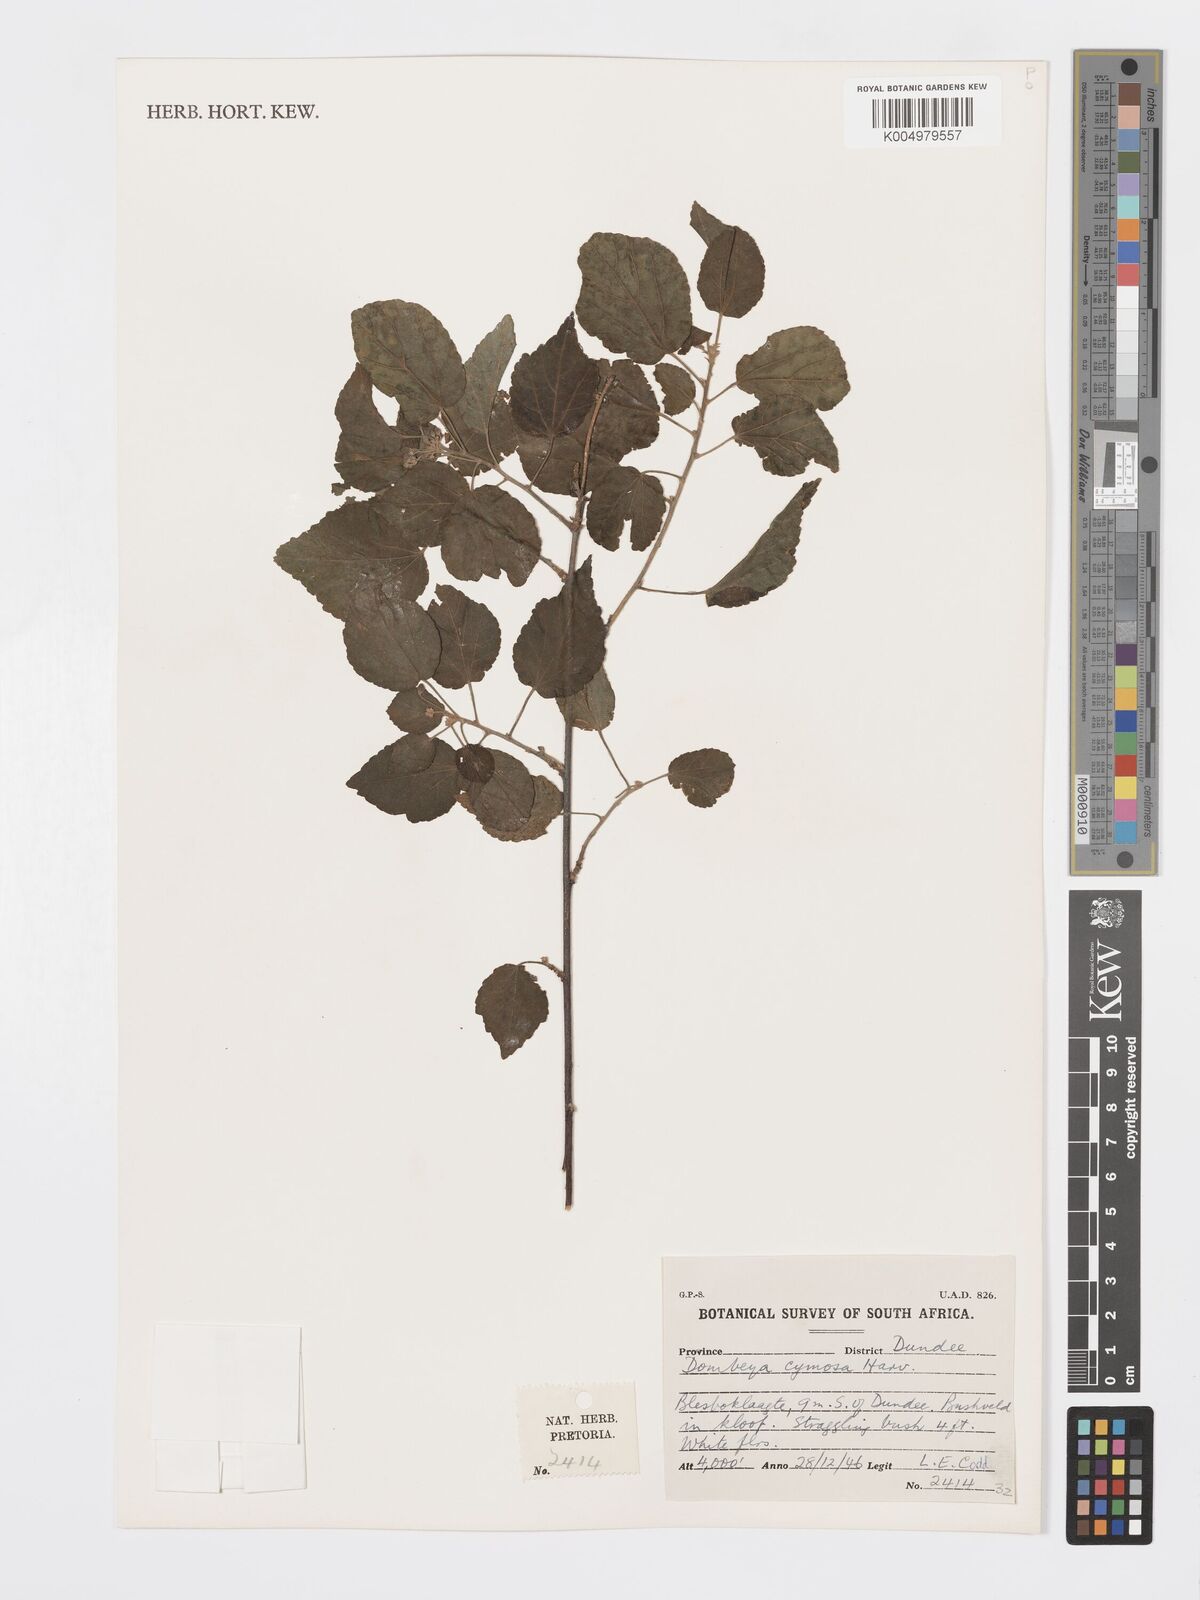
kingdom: Plantae
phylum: Tracheophyta
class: Magnoliopsida
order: Malvales
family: Malvaceae
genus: Dombeya
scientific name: Dombeya cymosa
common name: Hairless dombeya
